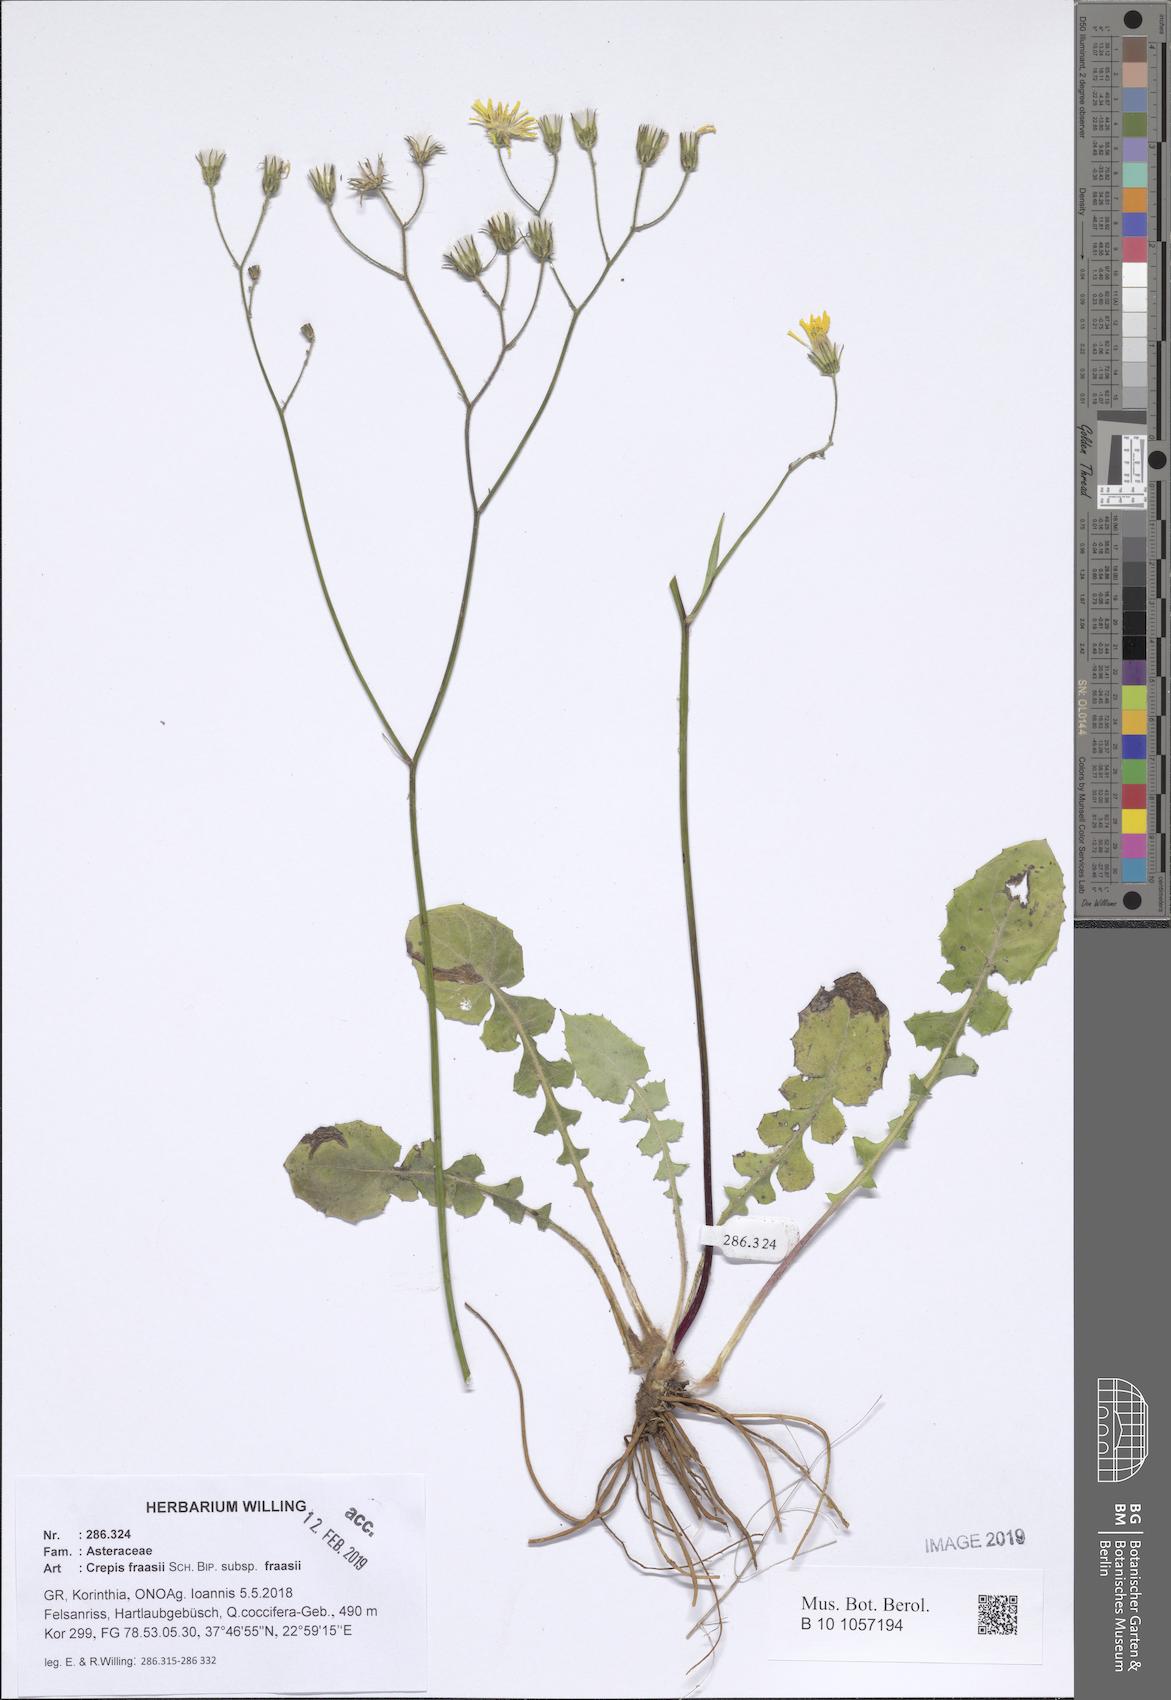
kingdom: Plantae
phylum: Tracheophyta
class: Magnoliopsida
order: Asterales
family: Asteraceae
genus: Crepis
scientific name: Crepis fraasii
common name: Hawk's-beard
